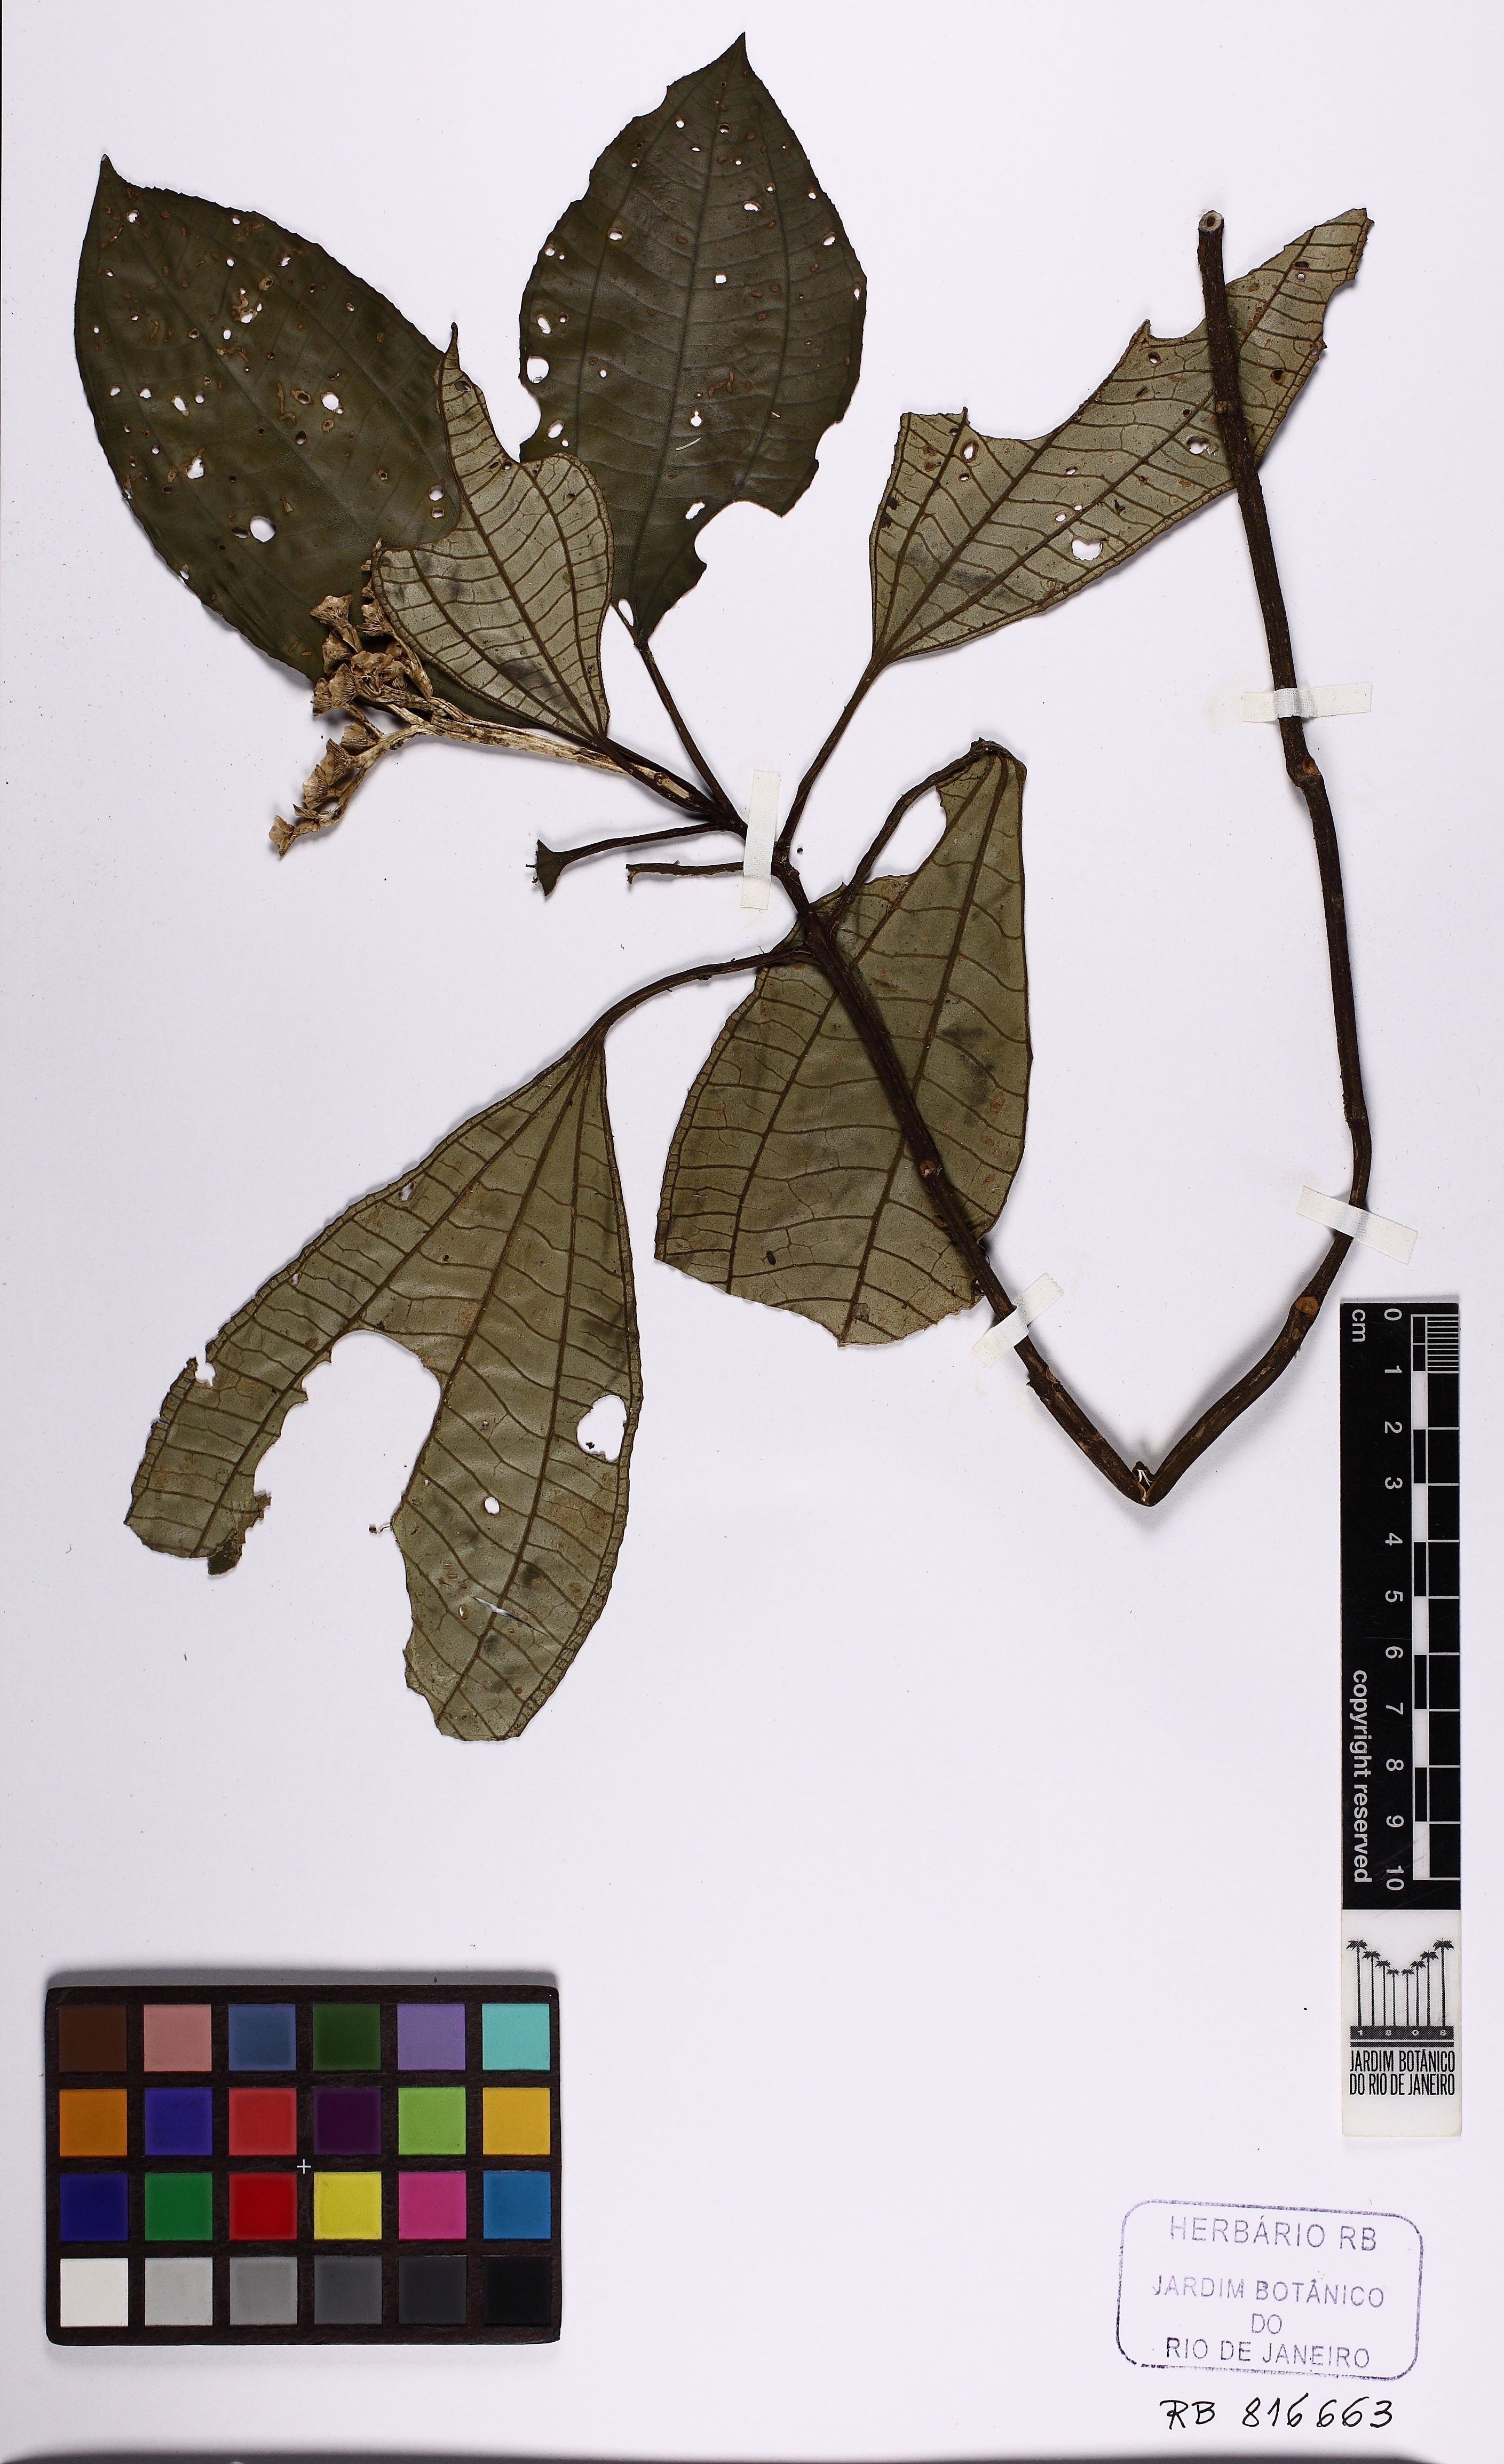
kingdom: Plantae
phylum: Tracheophyta
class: Magnoliopsida
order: Myrtales
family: Melastomataceae
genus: Bertolonia
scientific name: Bertolonia leuzeana
